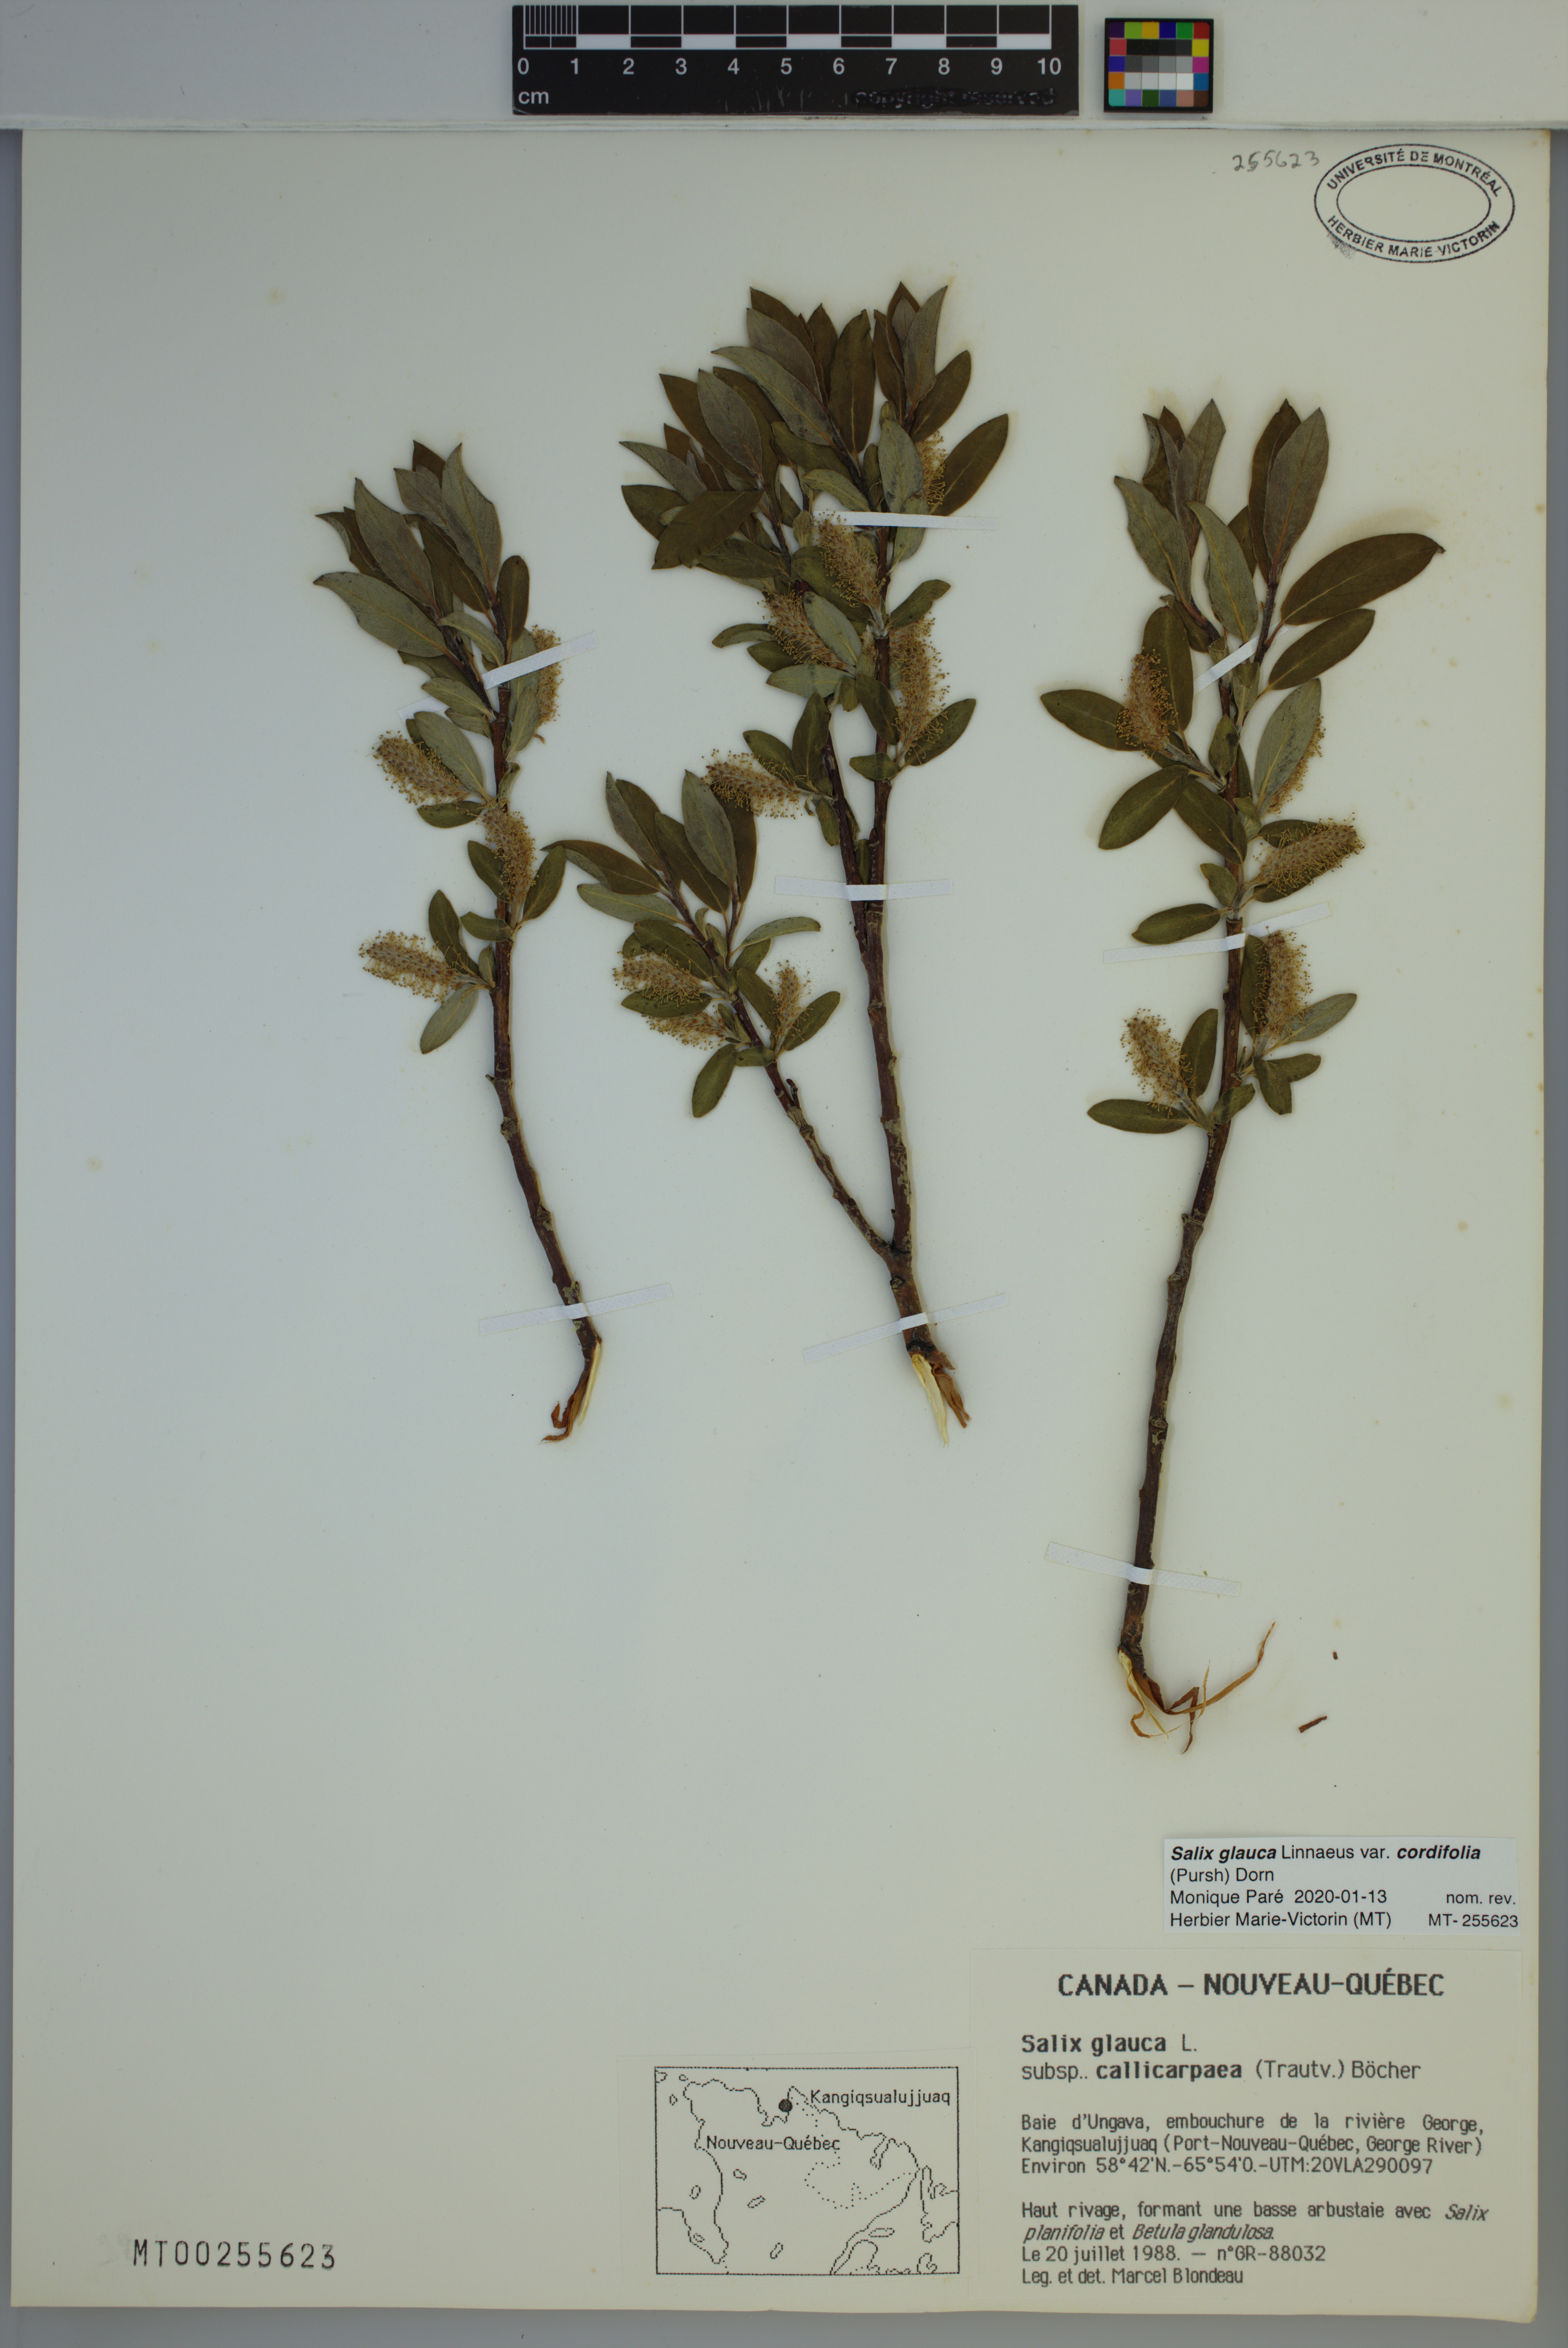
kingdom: Plantae
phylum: Tracheophyta
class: Magnoliopsida
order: Malpighiales
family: Salicaceae
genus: Salix
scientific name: Salix glauca
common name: Glaucous willow
